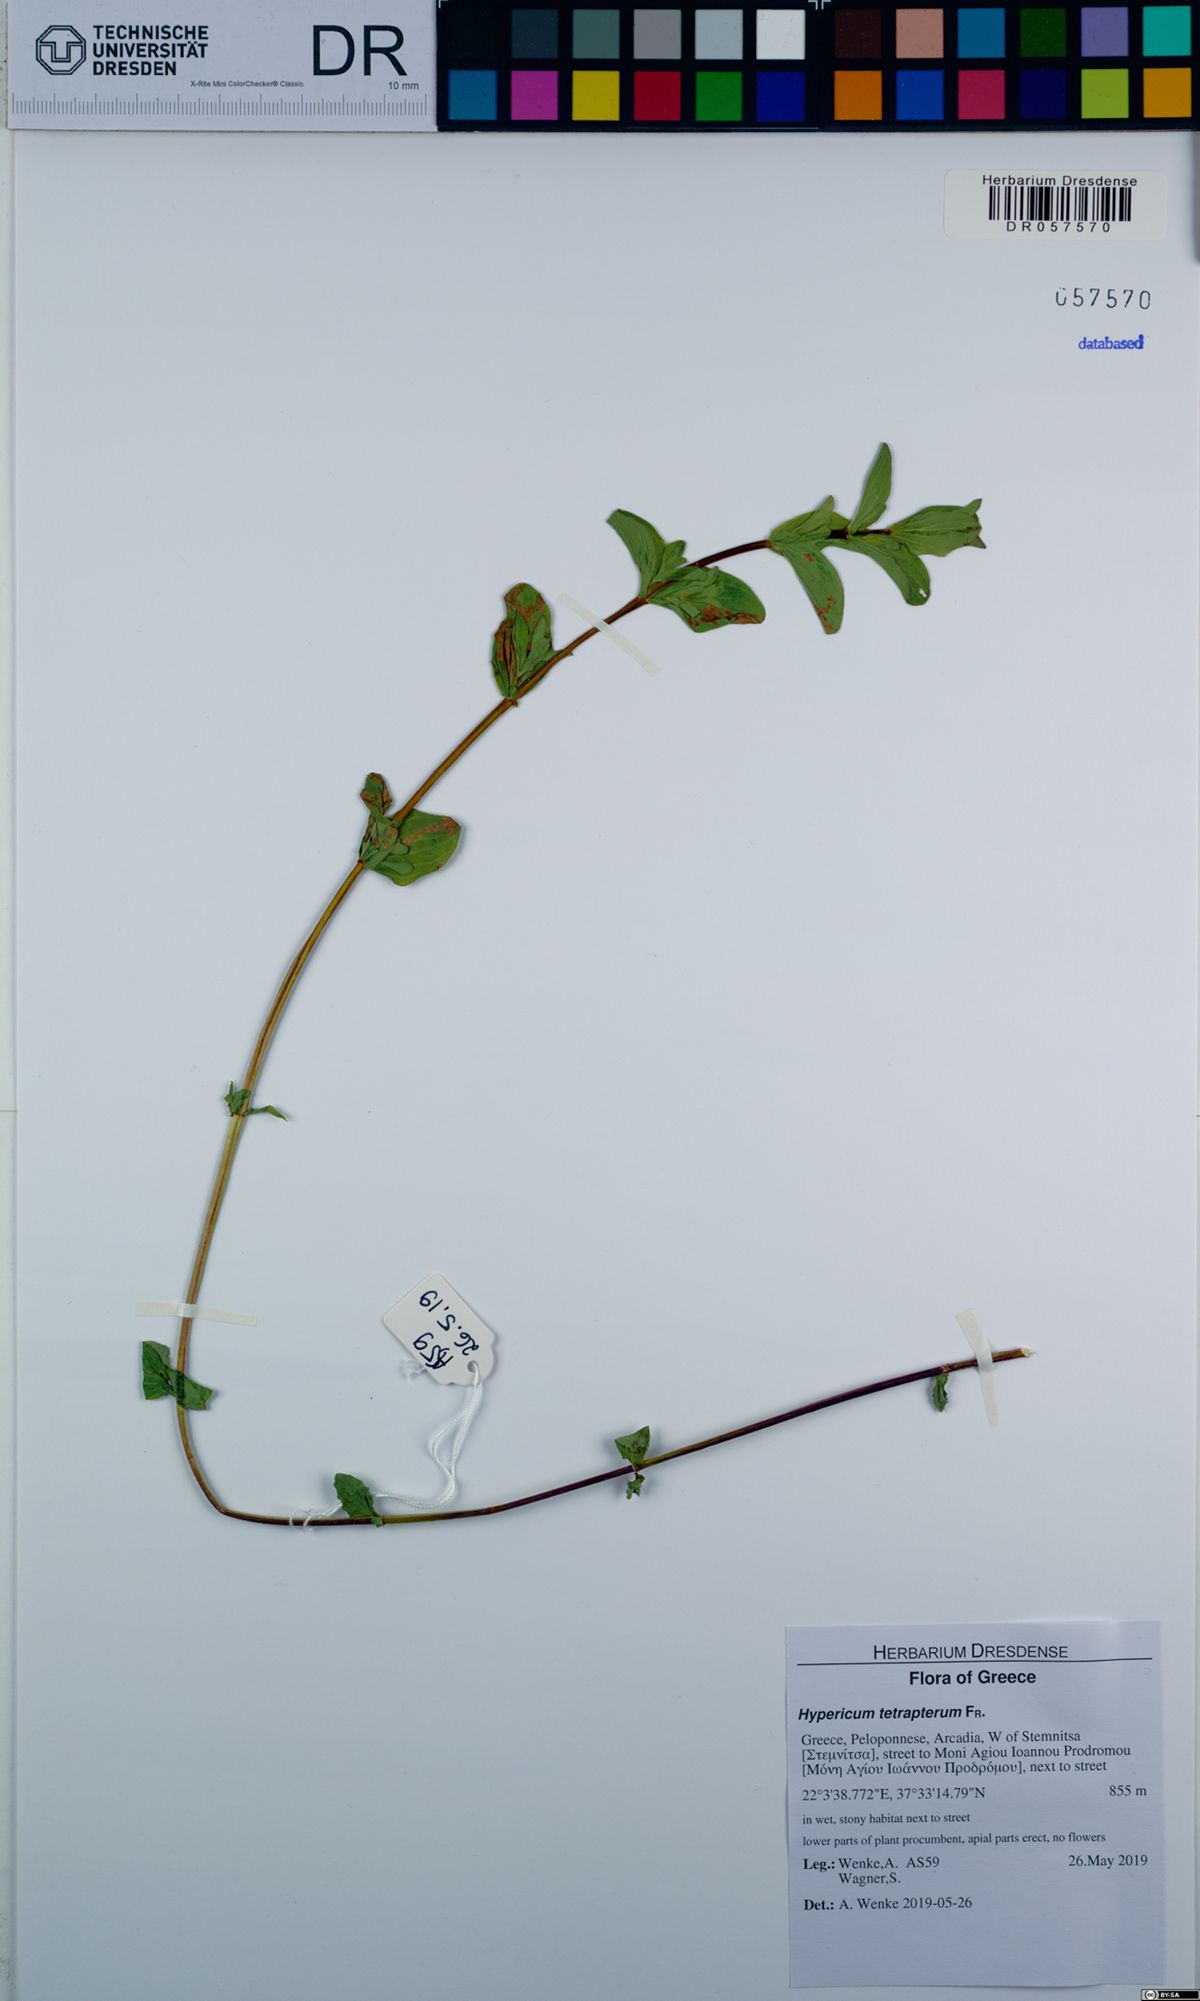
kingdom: Plantae
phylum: Tracheophyta
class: Magnoliopsida
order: Malpighiales
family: Hypericaceae
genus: Hypericum
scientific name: Hypericum tetrapterum
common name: Square-stalked st. john's-wort
